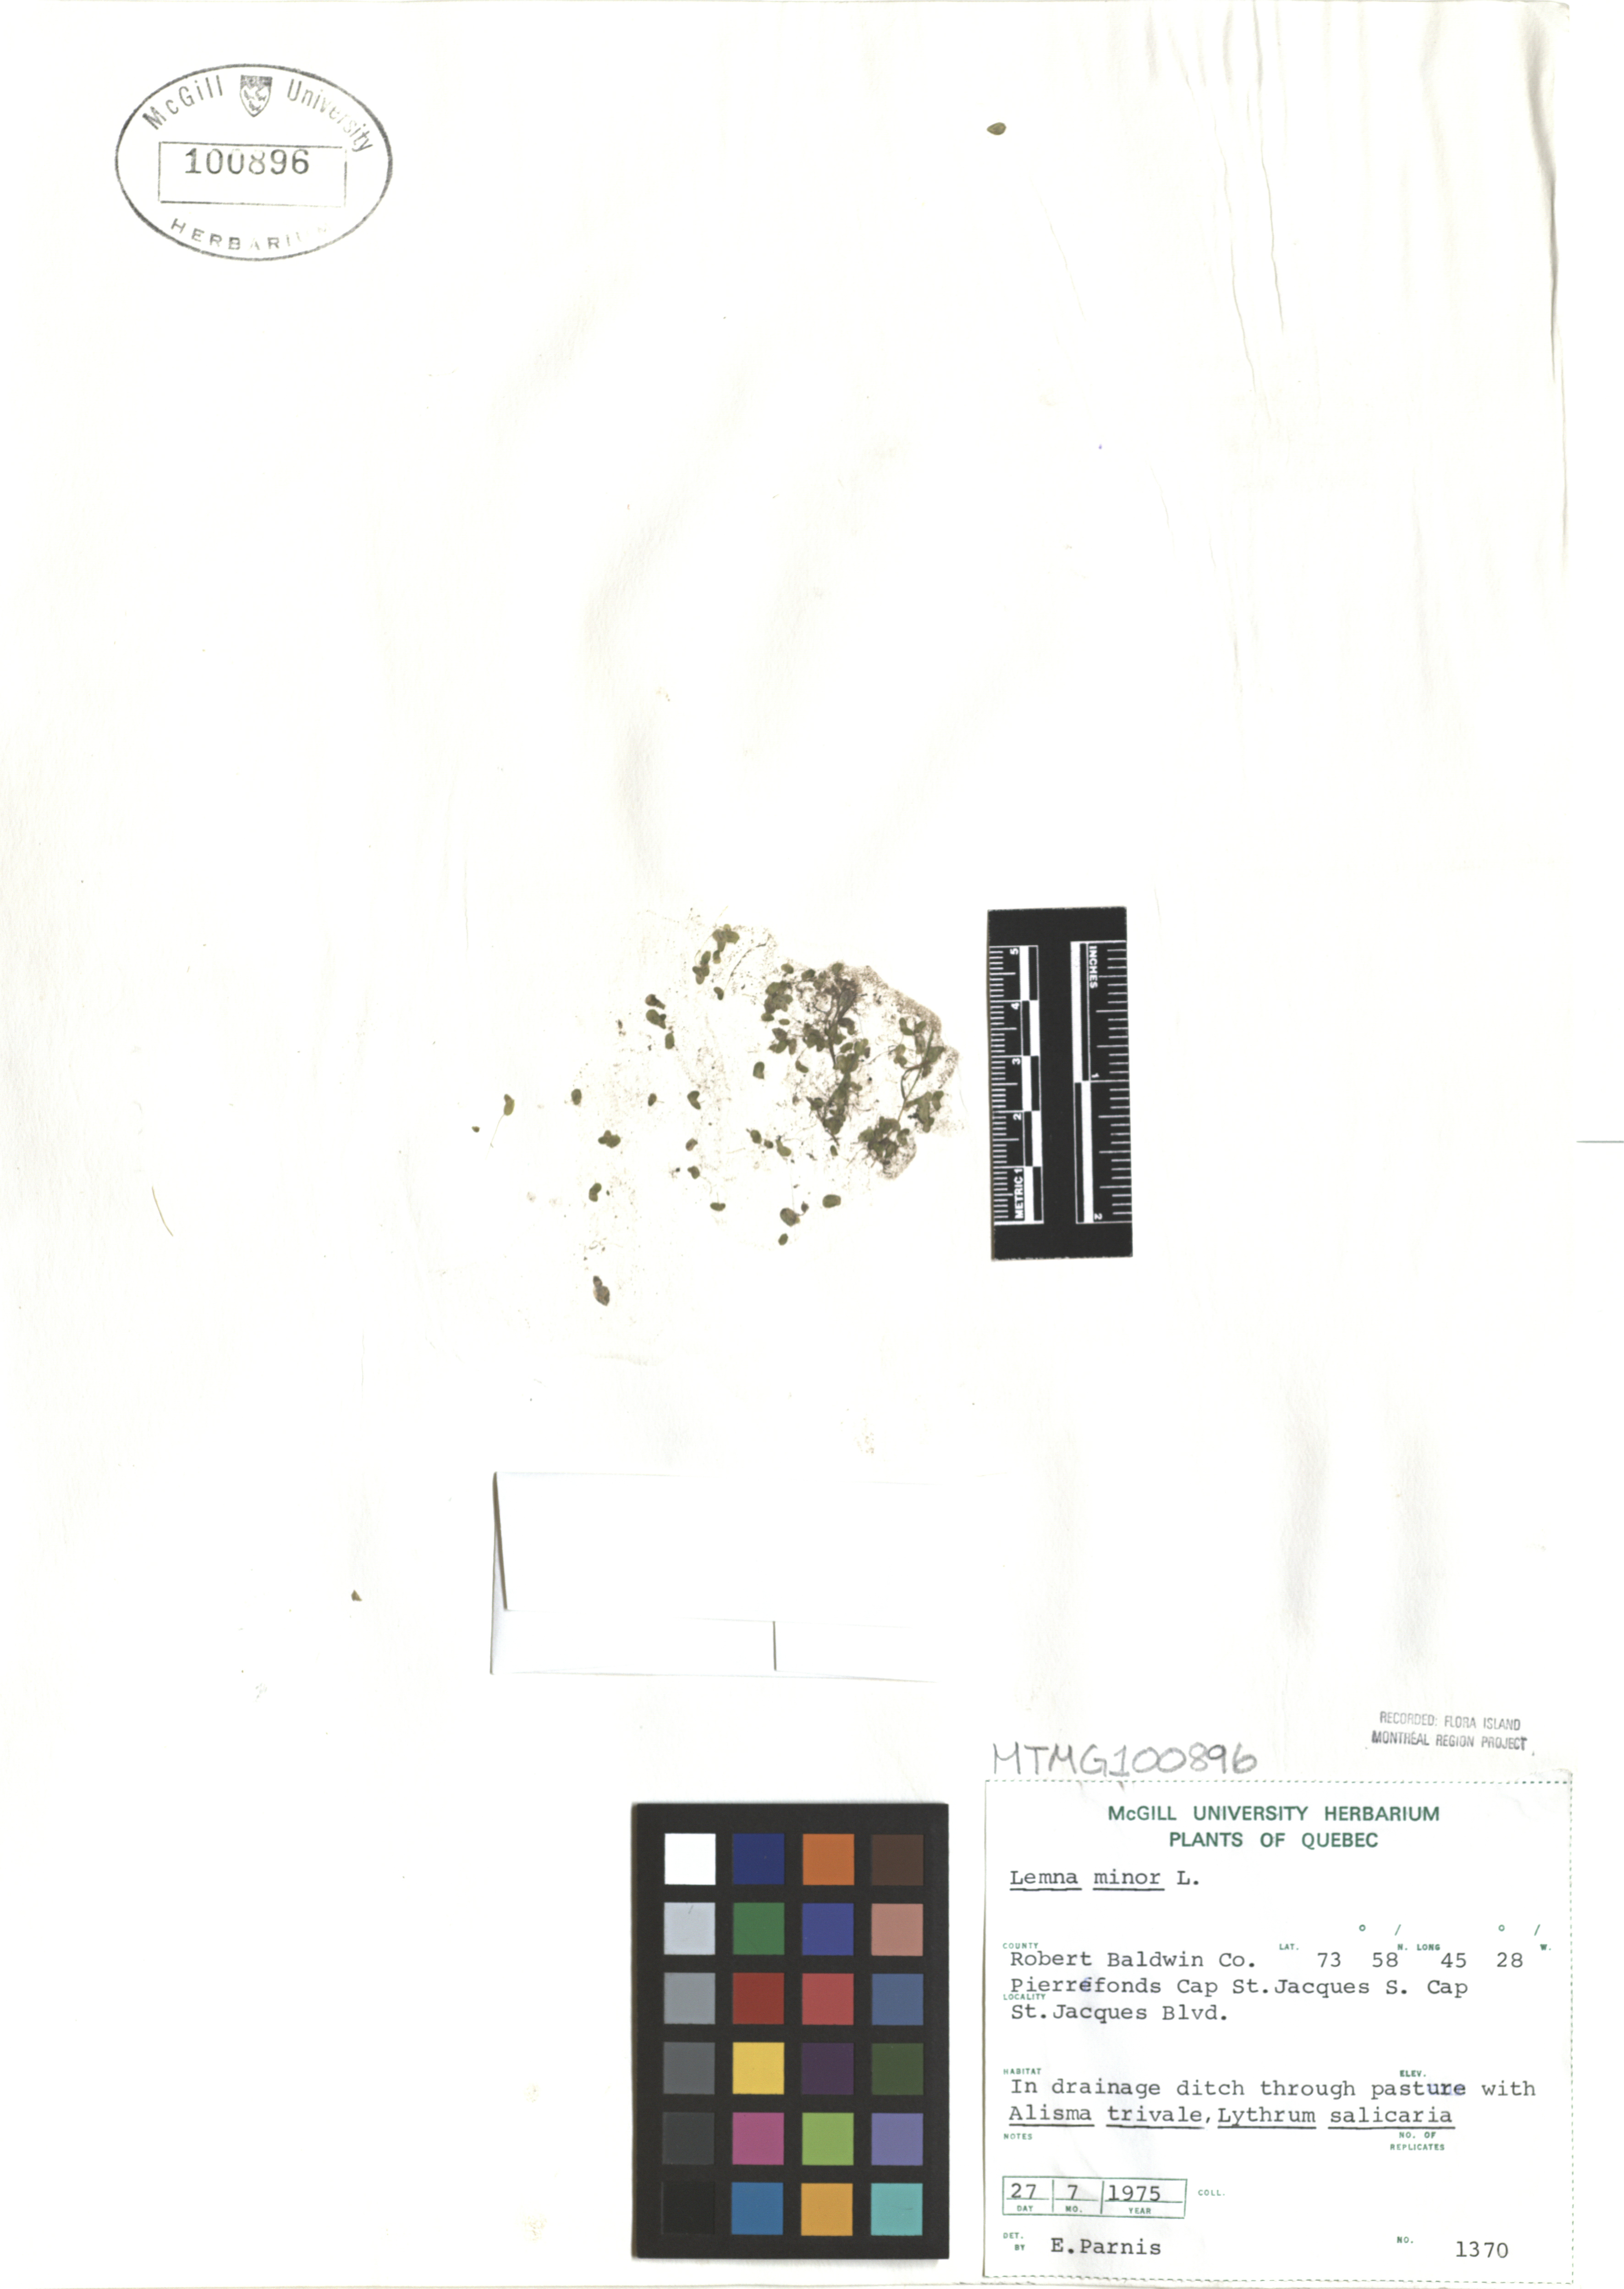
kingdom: Plantae
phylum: Tracheophyta
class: Liliopsida
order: Alismatales
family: Araceae
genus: Lemna
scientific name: Lemna minor
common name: Common duckweed
